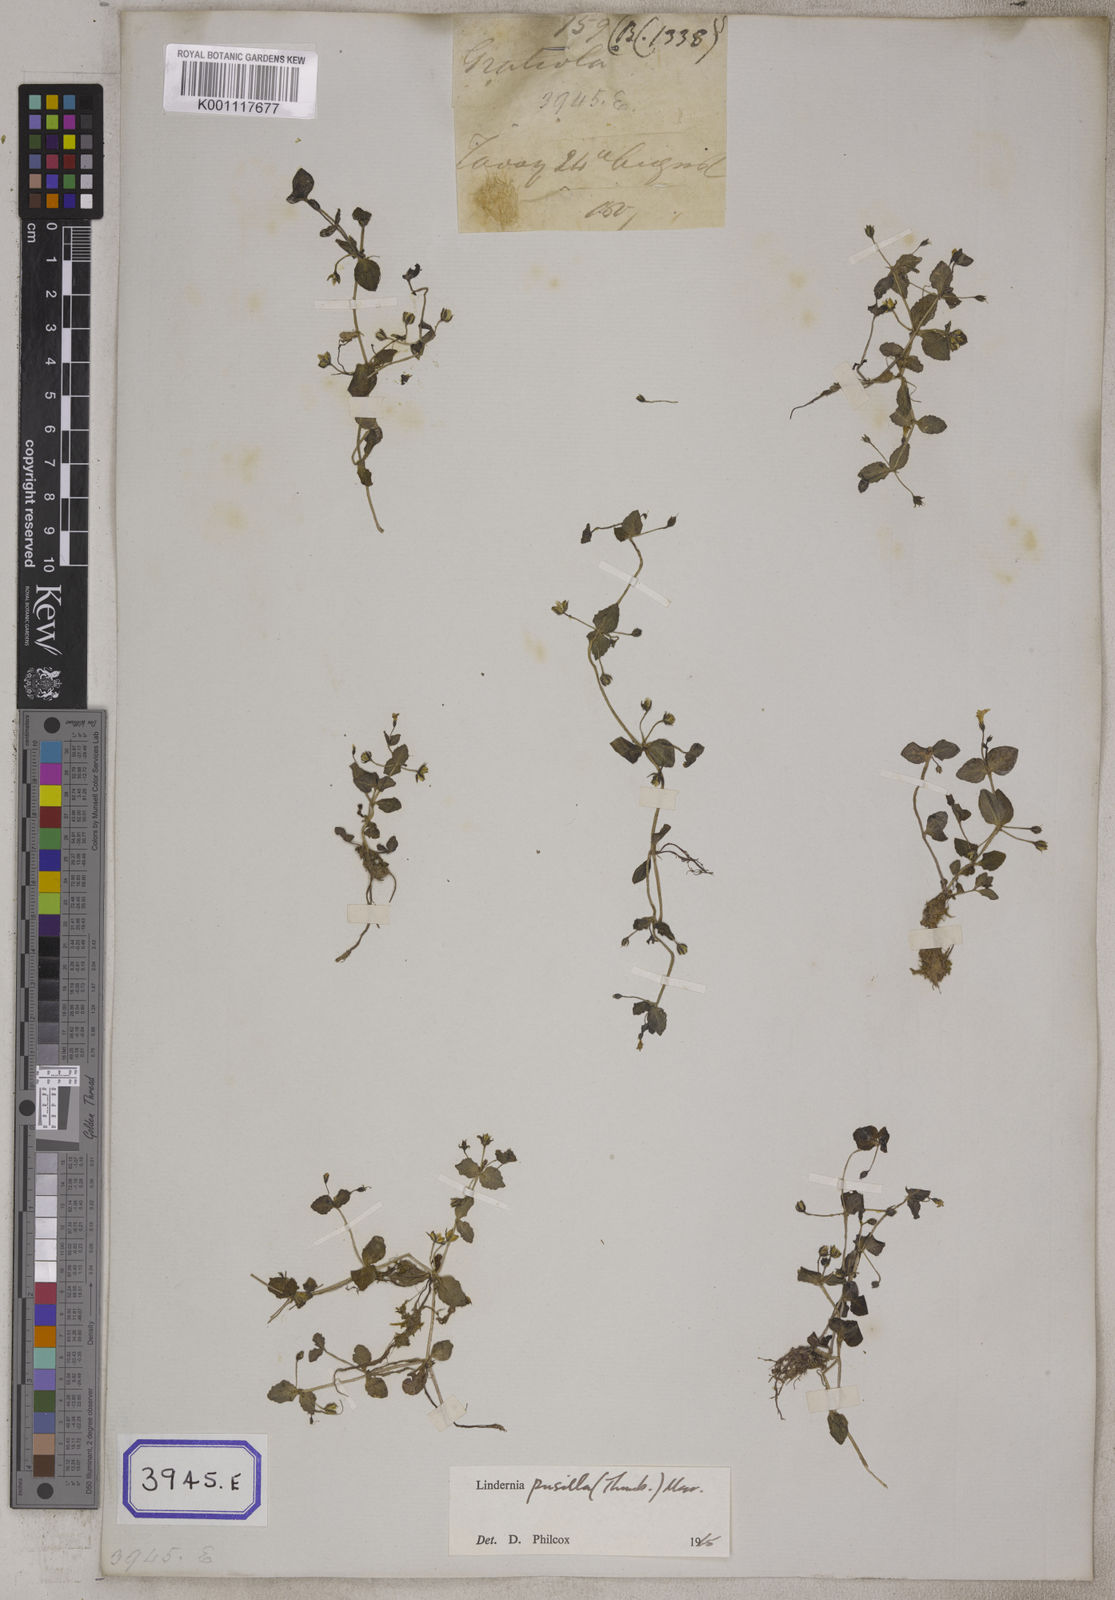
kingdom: Plantae
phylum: Tracheophyta
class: Magnoliopsida
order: Lamiales
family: Linderniaceae
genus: Yamazakia
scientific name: Yamazakia pusilla
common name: Tiny slitwort
